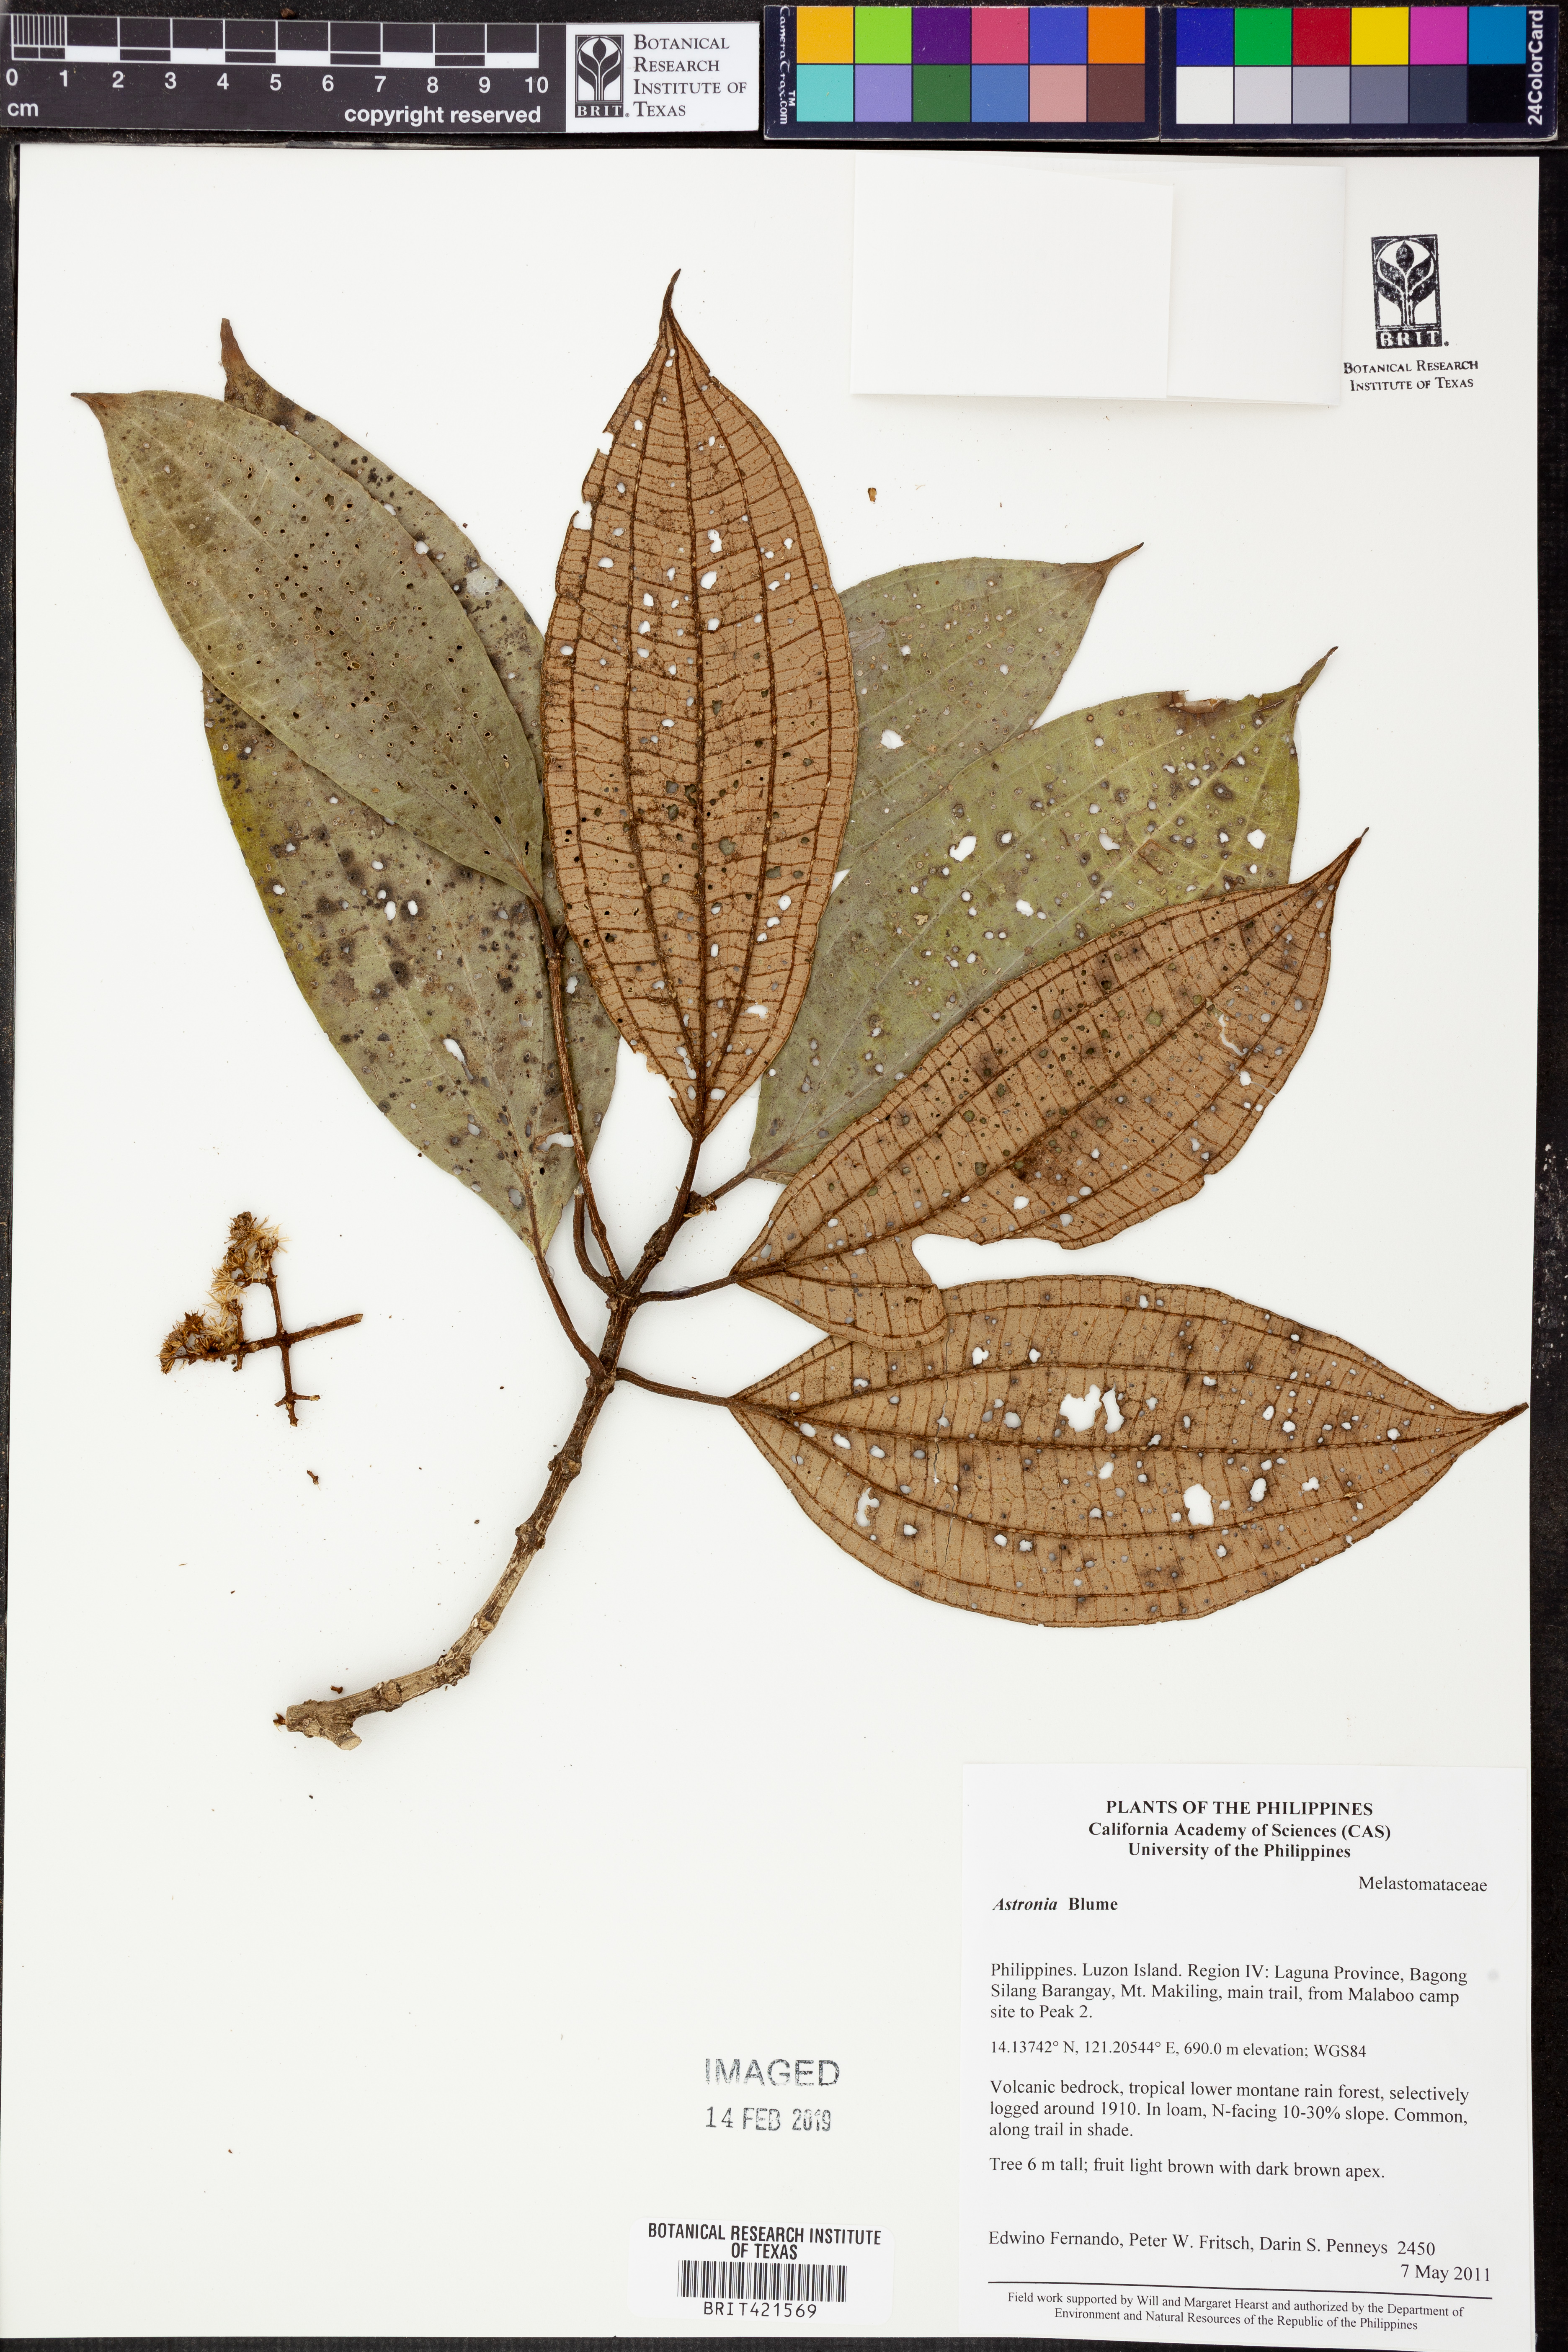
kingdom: Plantae
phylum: Tracheophyta
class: Magnoliopsida
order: Myrtales
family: Melastomataceae
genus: Astronia
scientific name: Astronia
